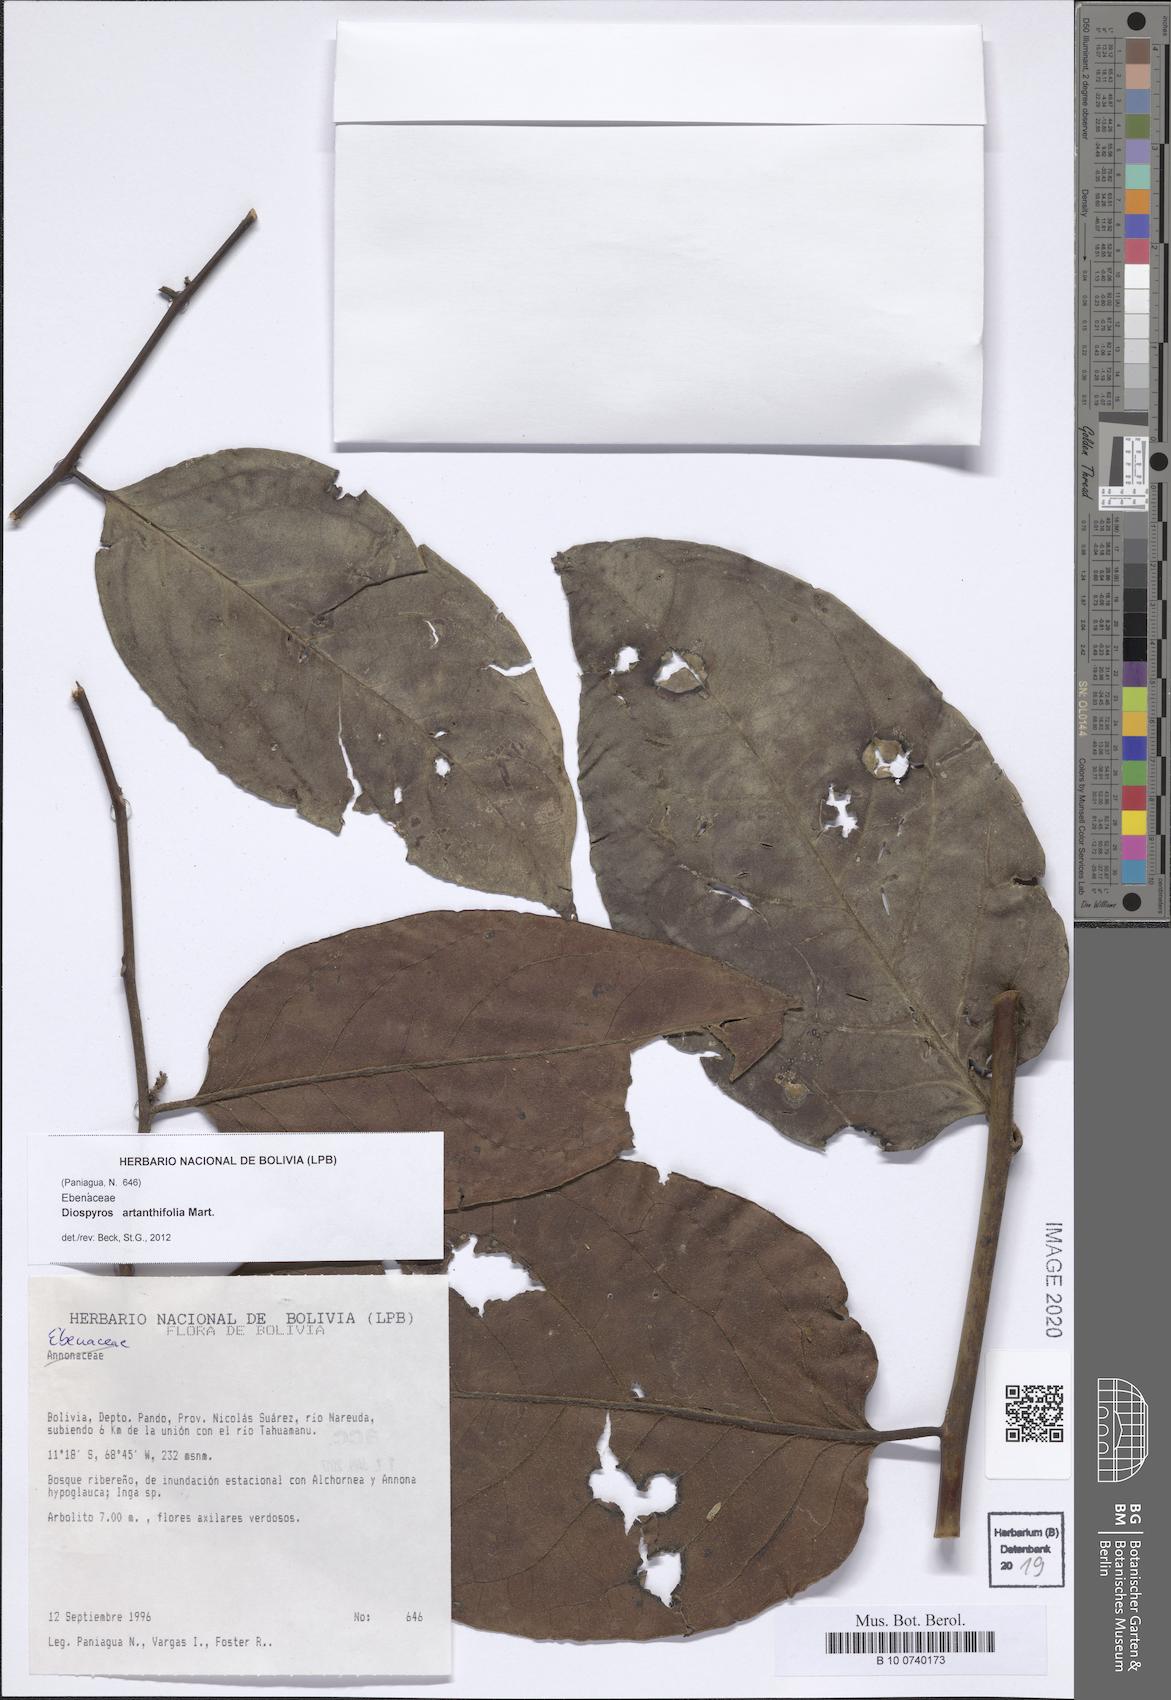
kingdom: Plantae
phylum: Tracheophyta
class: Magnoliopsida
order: Ericales
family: Ebenaceae
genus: Diospyros
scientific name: Diospyros artanthifolia
